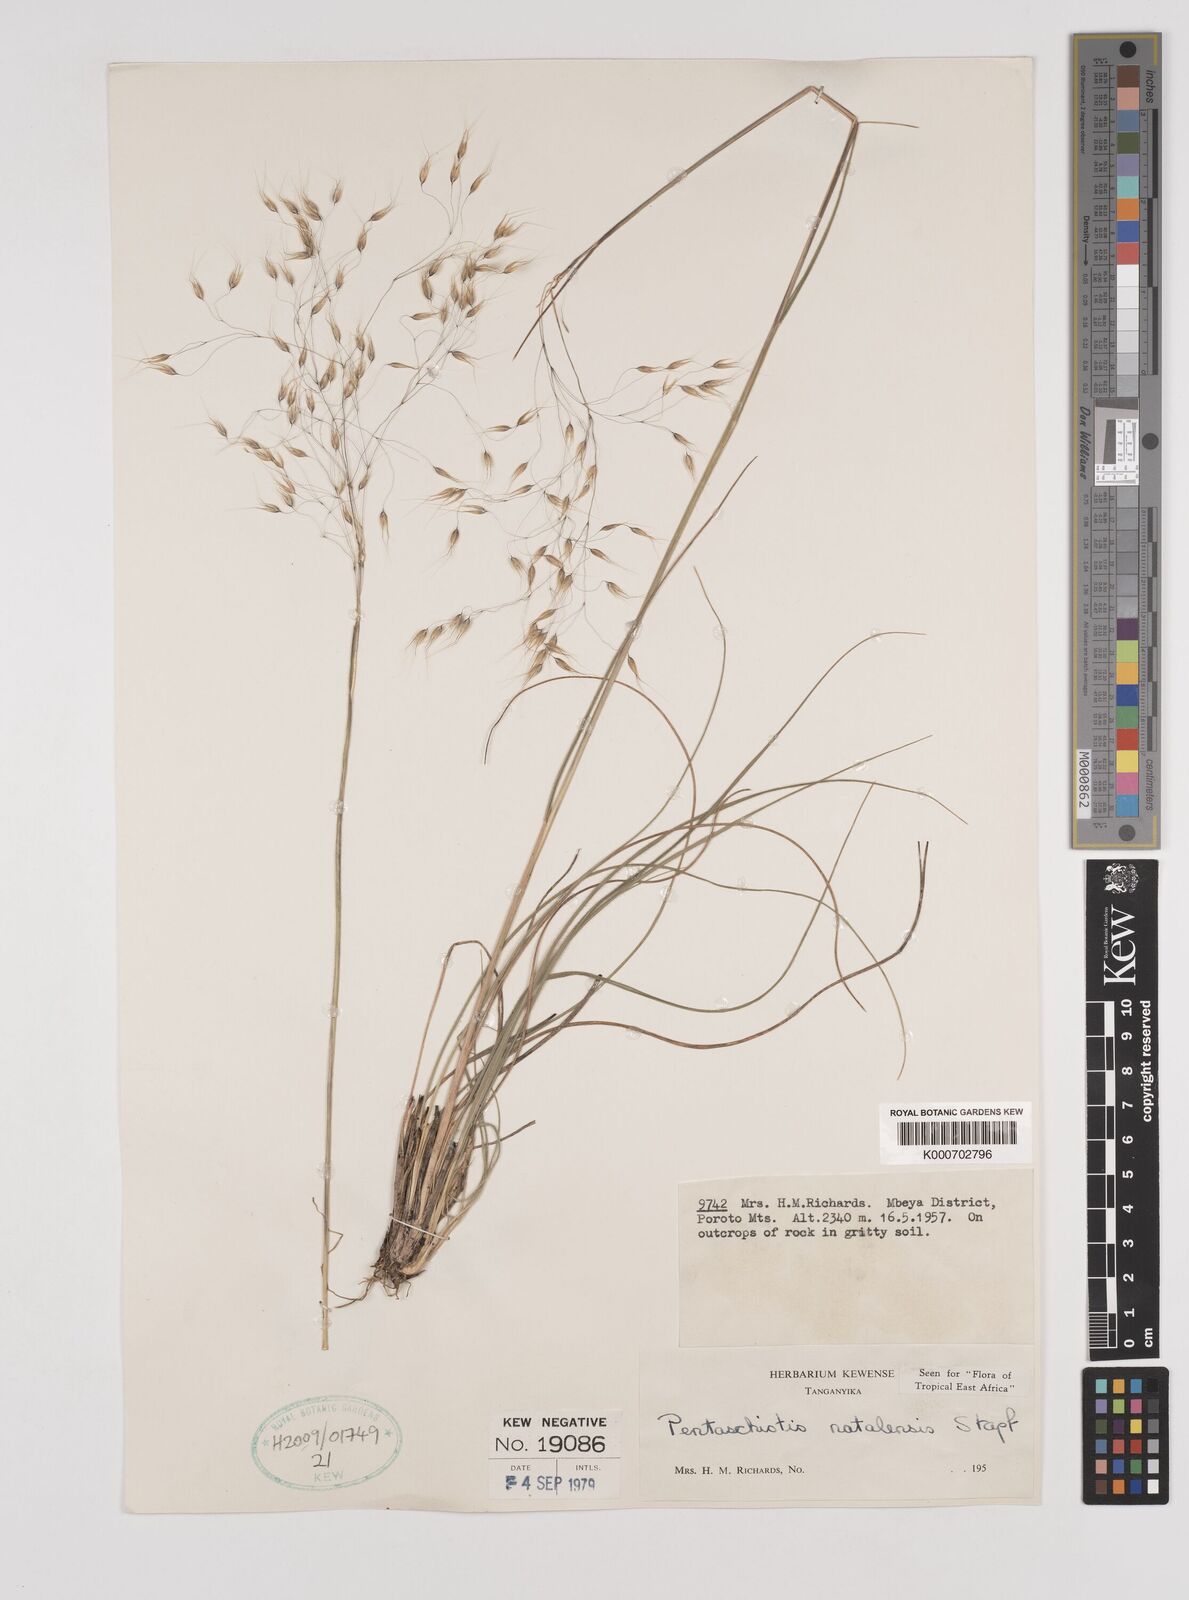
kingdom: Plantae
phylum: Tracheophyta
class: Liliopsida
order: Poales
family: Poaceae
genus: Pentameris
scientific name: Pentameris natalensis
